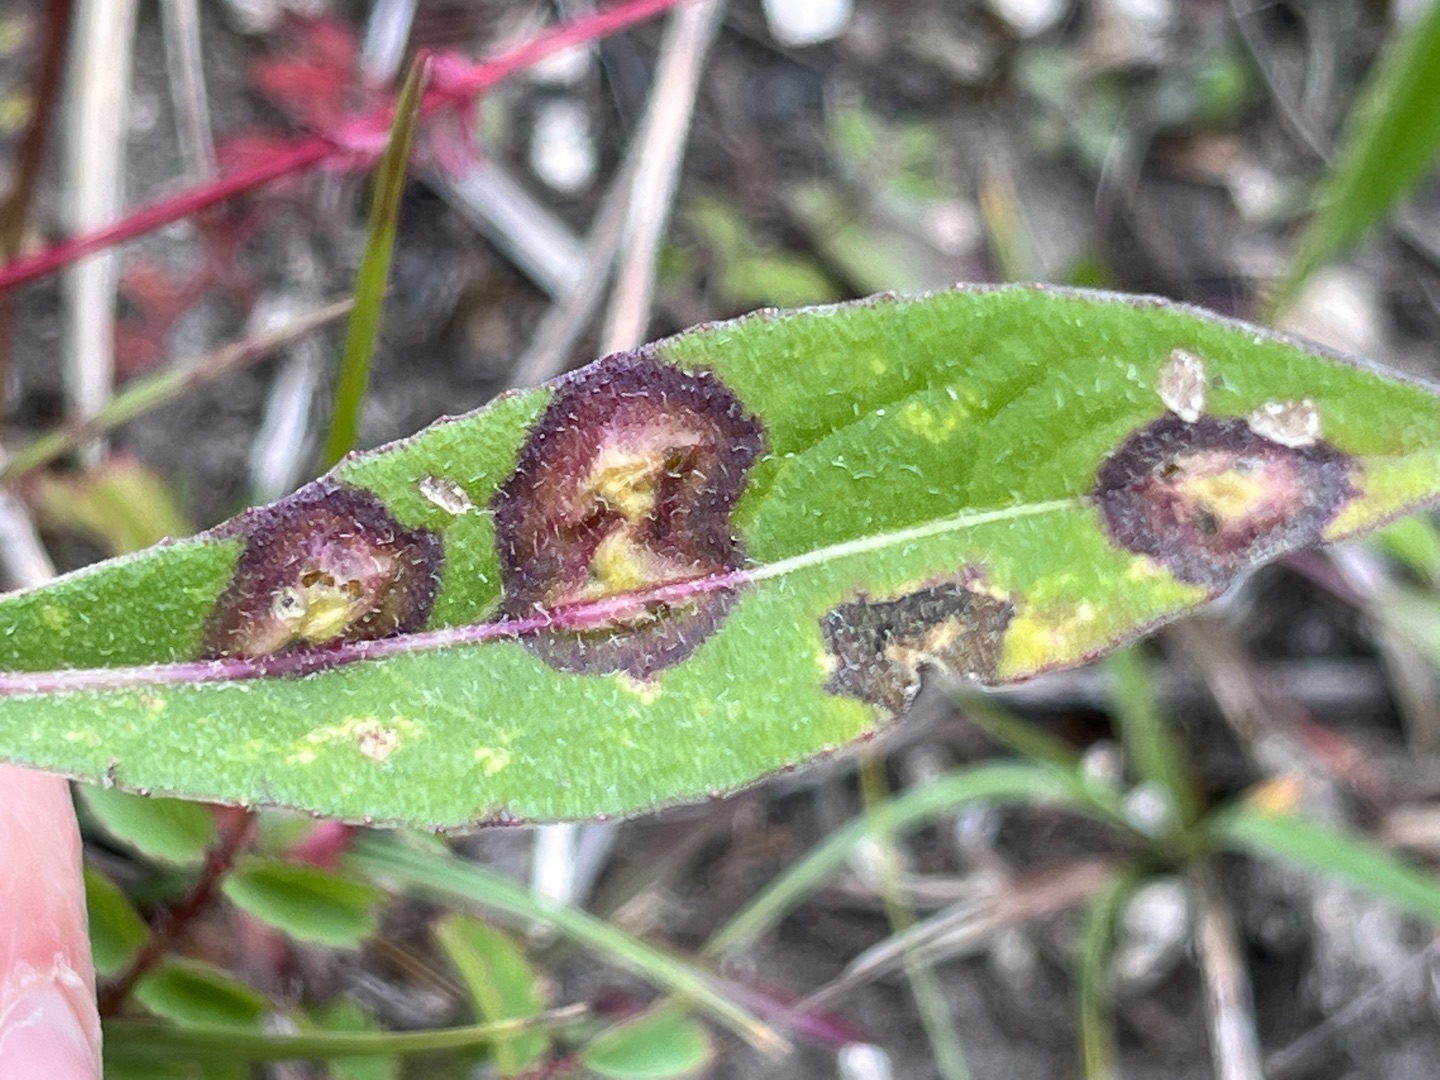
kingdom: Animalia
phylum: Arthropoda
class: Insecta
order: Diptera
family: Cecidomyiidae
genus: Loewiola
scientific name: Loewiola centaureae
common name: Knopurtblæregalmyg
